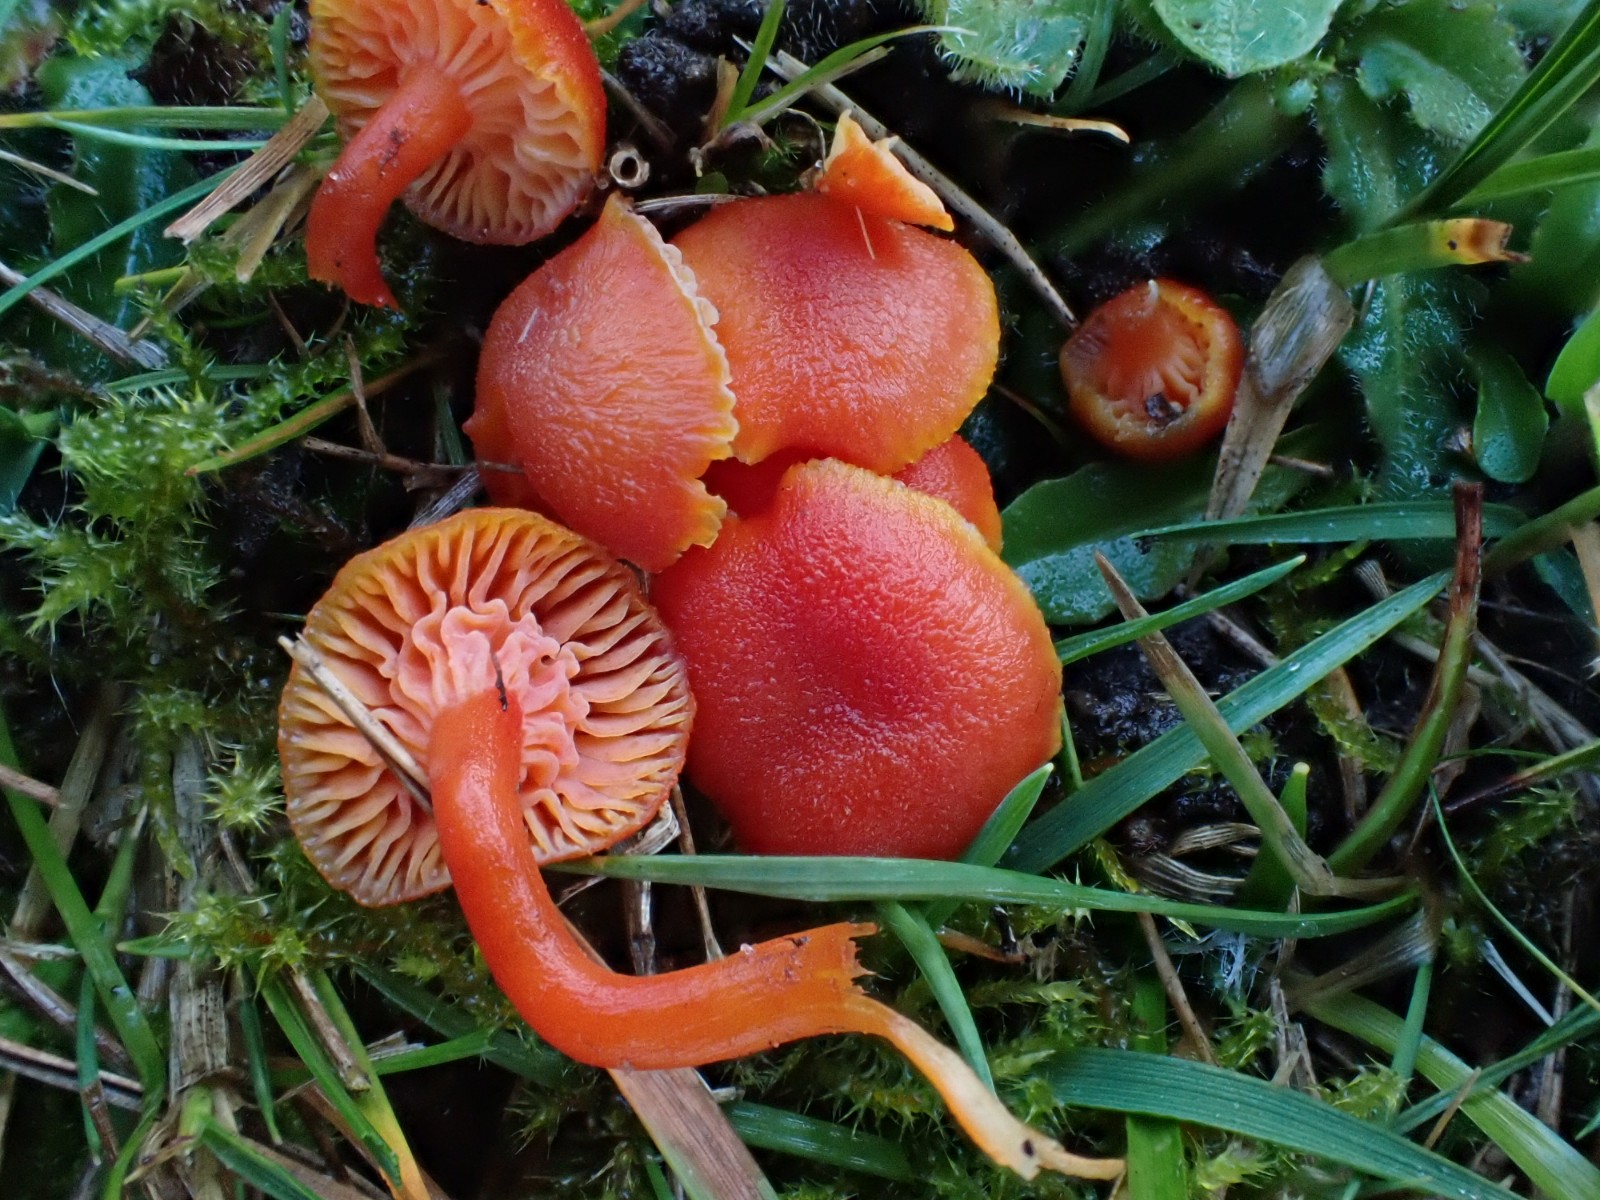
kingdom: Fungi
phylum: Basidiomycota
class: Agaricomycetes
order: Agaricales
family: Hygrophoraceae
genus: Hygrocybe
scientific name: Hygrocybe miniata
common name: mønje-vokshat
